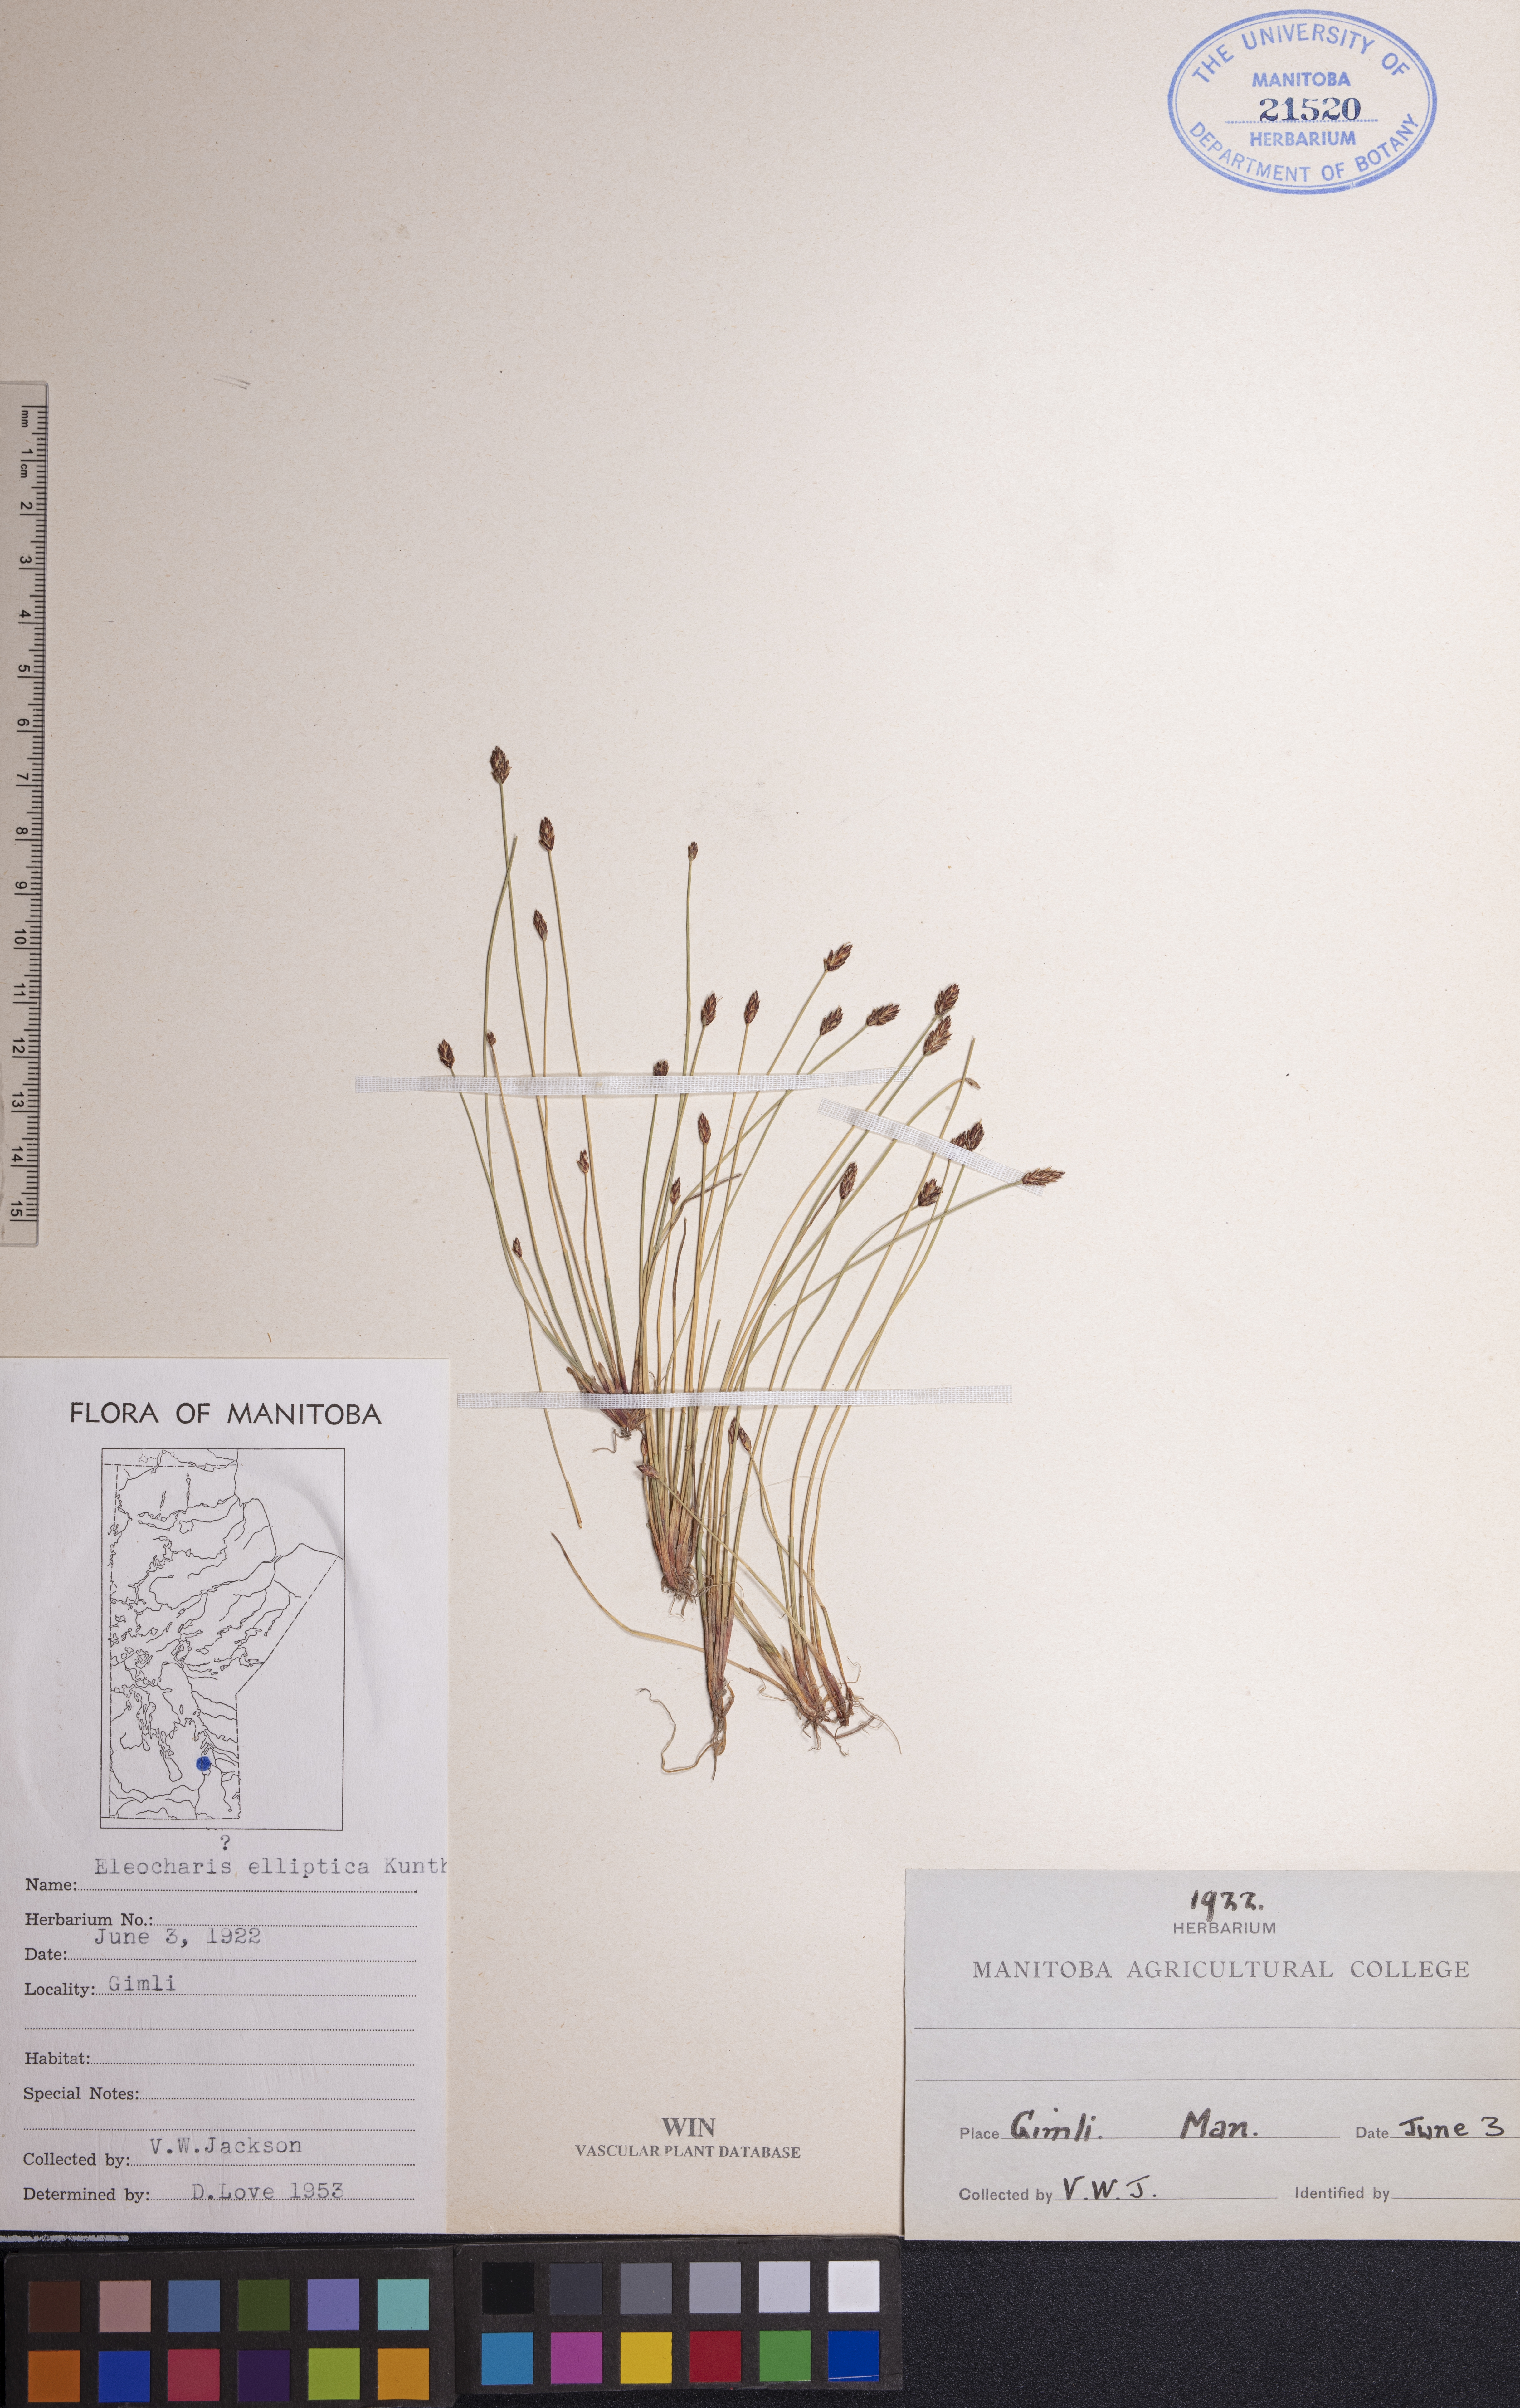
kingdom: Plantae
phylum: Tracheophyta
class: Liliopsida
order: Poales
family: Cyperaceae
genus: Eleocharis
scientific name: Eleocharis elliptica
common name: Capitate spikerush
